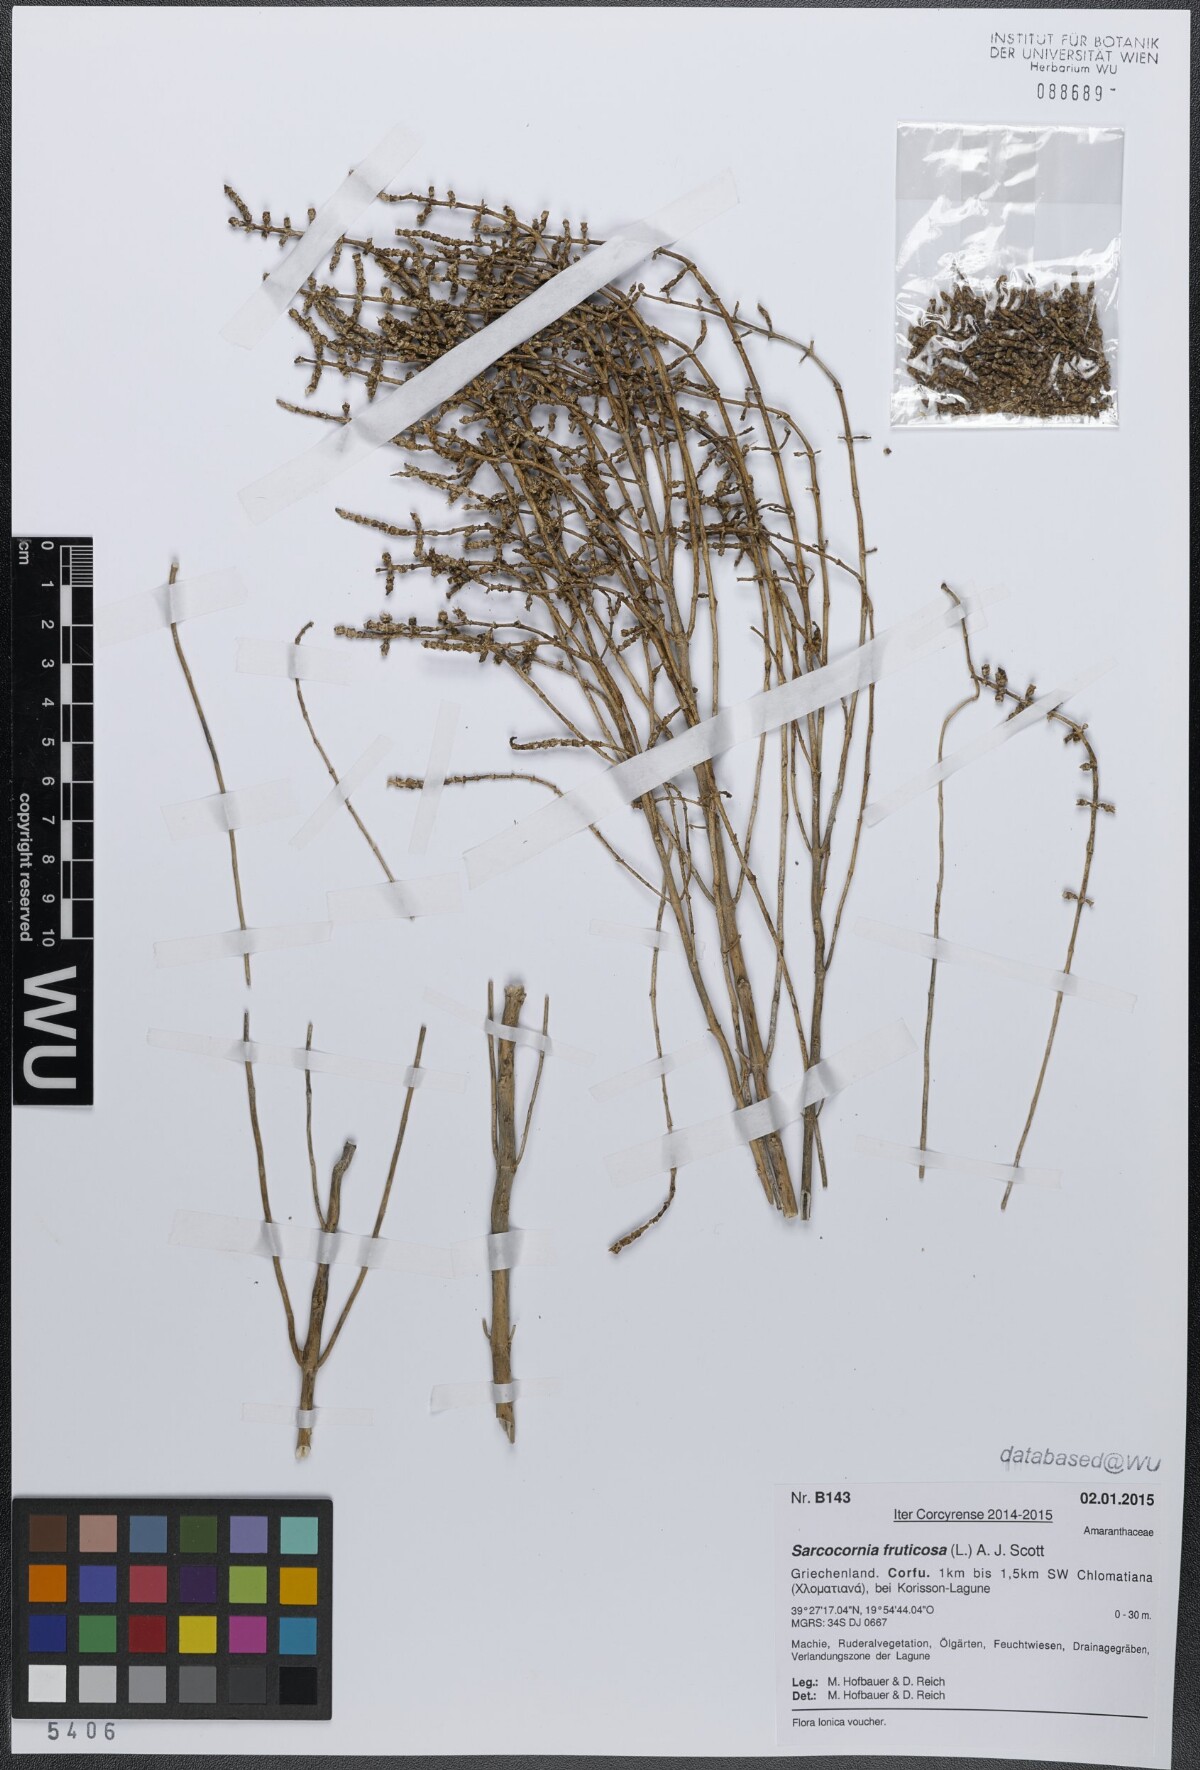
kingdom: Plantae
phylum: Tracheophyta
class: Magnoliopsida
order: Caryophyllales
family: Amaranthaceae
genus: Salicornia
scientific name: Salicornia fruticosa
